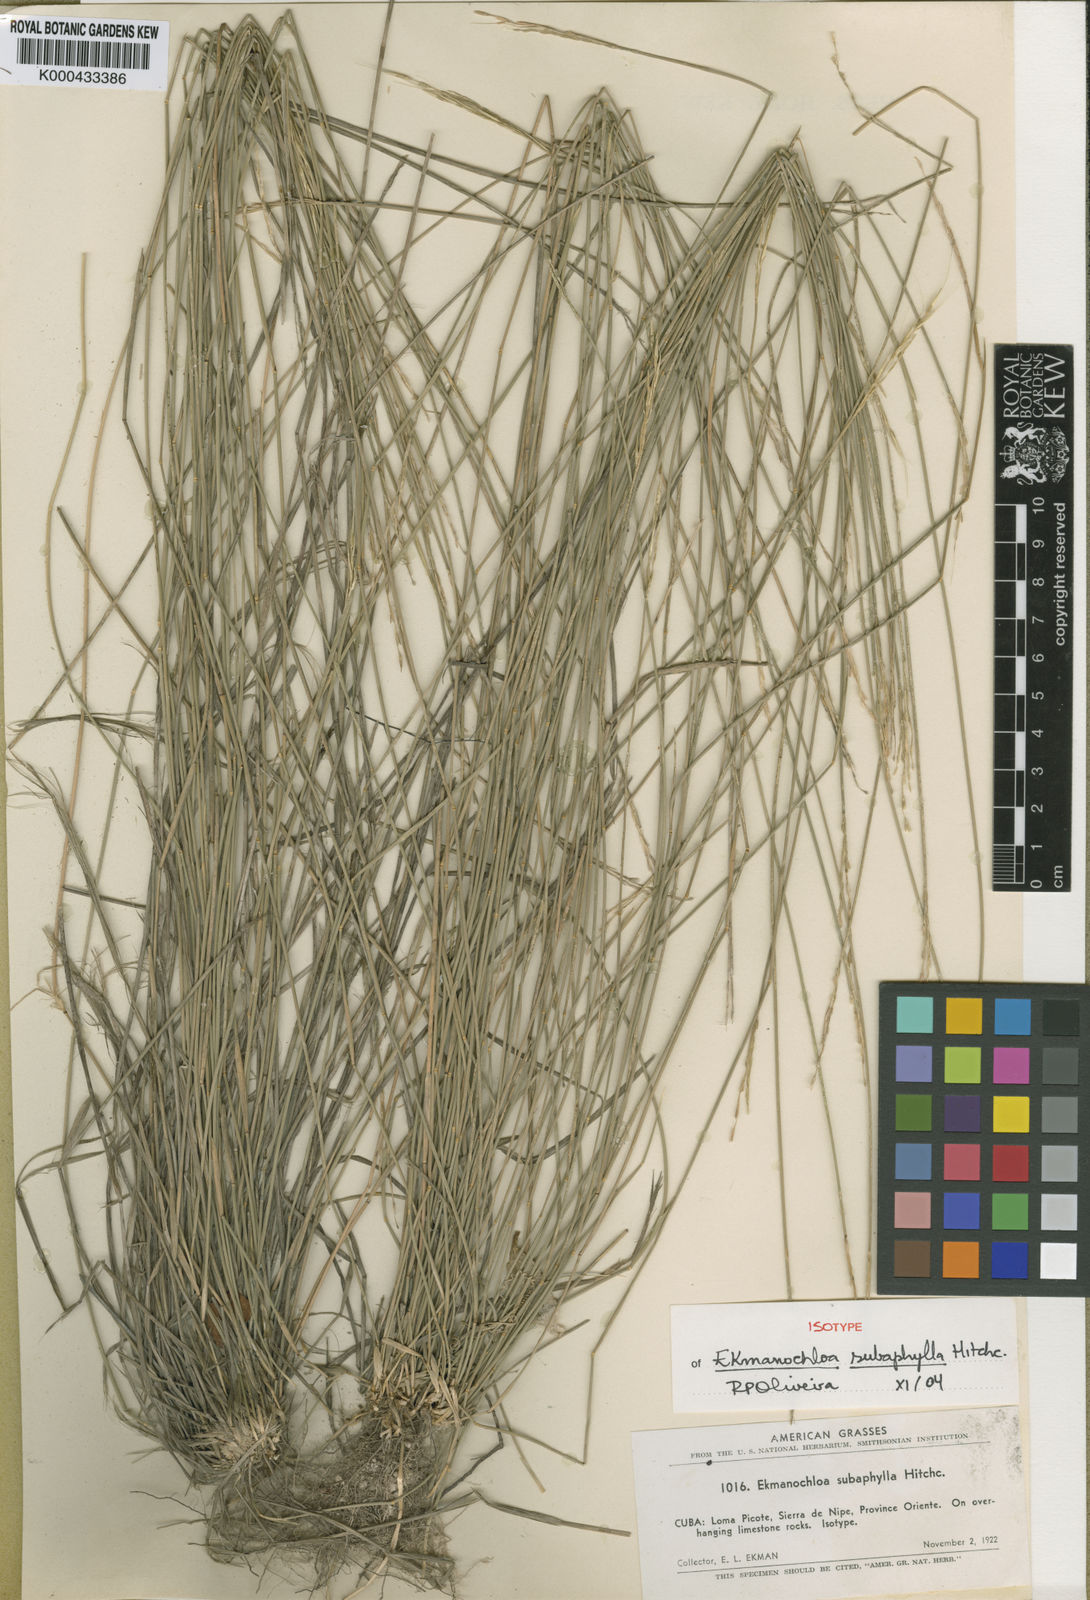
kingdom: Plantae
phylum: Tracheophyta
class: Liliopsida
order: Poales
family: Poaceae
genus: Ekmanochloa
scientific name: Ekmanochloa subaphylla
